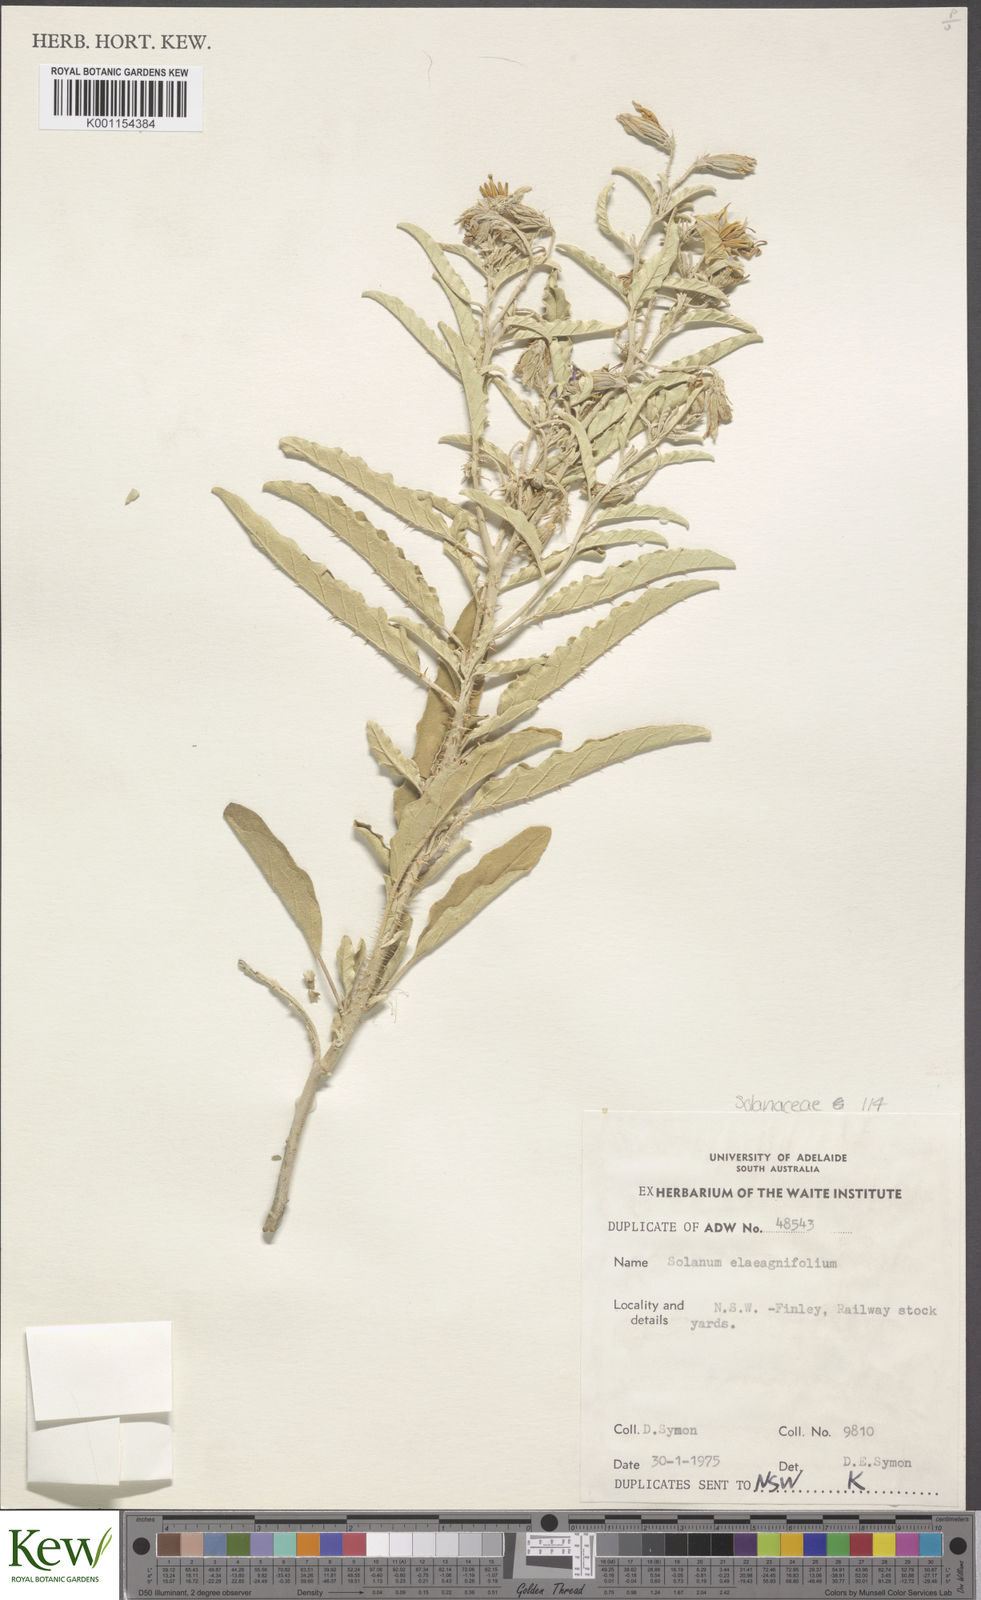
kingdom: Plantae
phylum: Tracheophyta
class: Magnoliopsida
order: Solanales
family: Solanaceae
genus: Solanum
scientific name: Solanum elaeagnifolium
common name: Silverleaf nightshade
